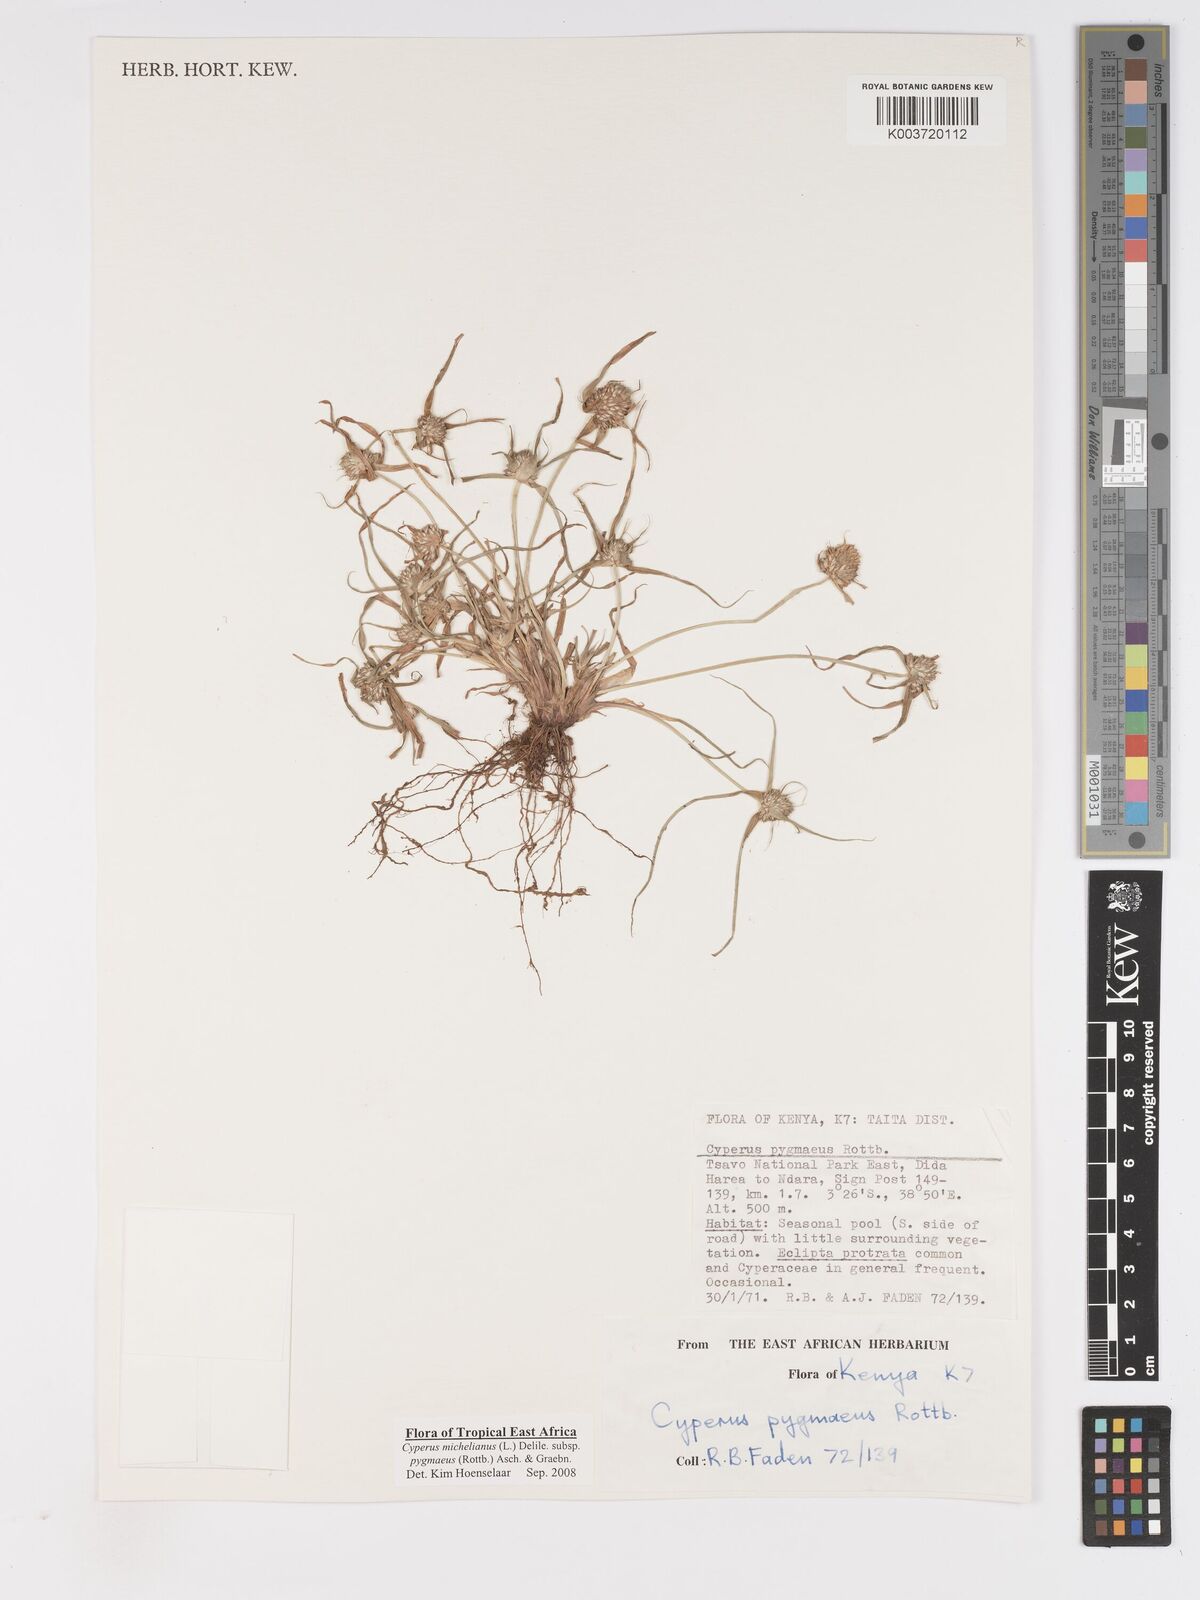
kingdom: Plantae
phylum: Tracheophyta
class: Liliopsida
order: Poales
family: Cyperaceae
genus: Cyperus
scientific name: Cyperus michelianus
